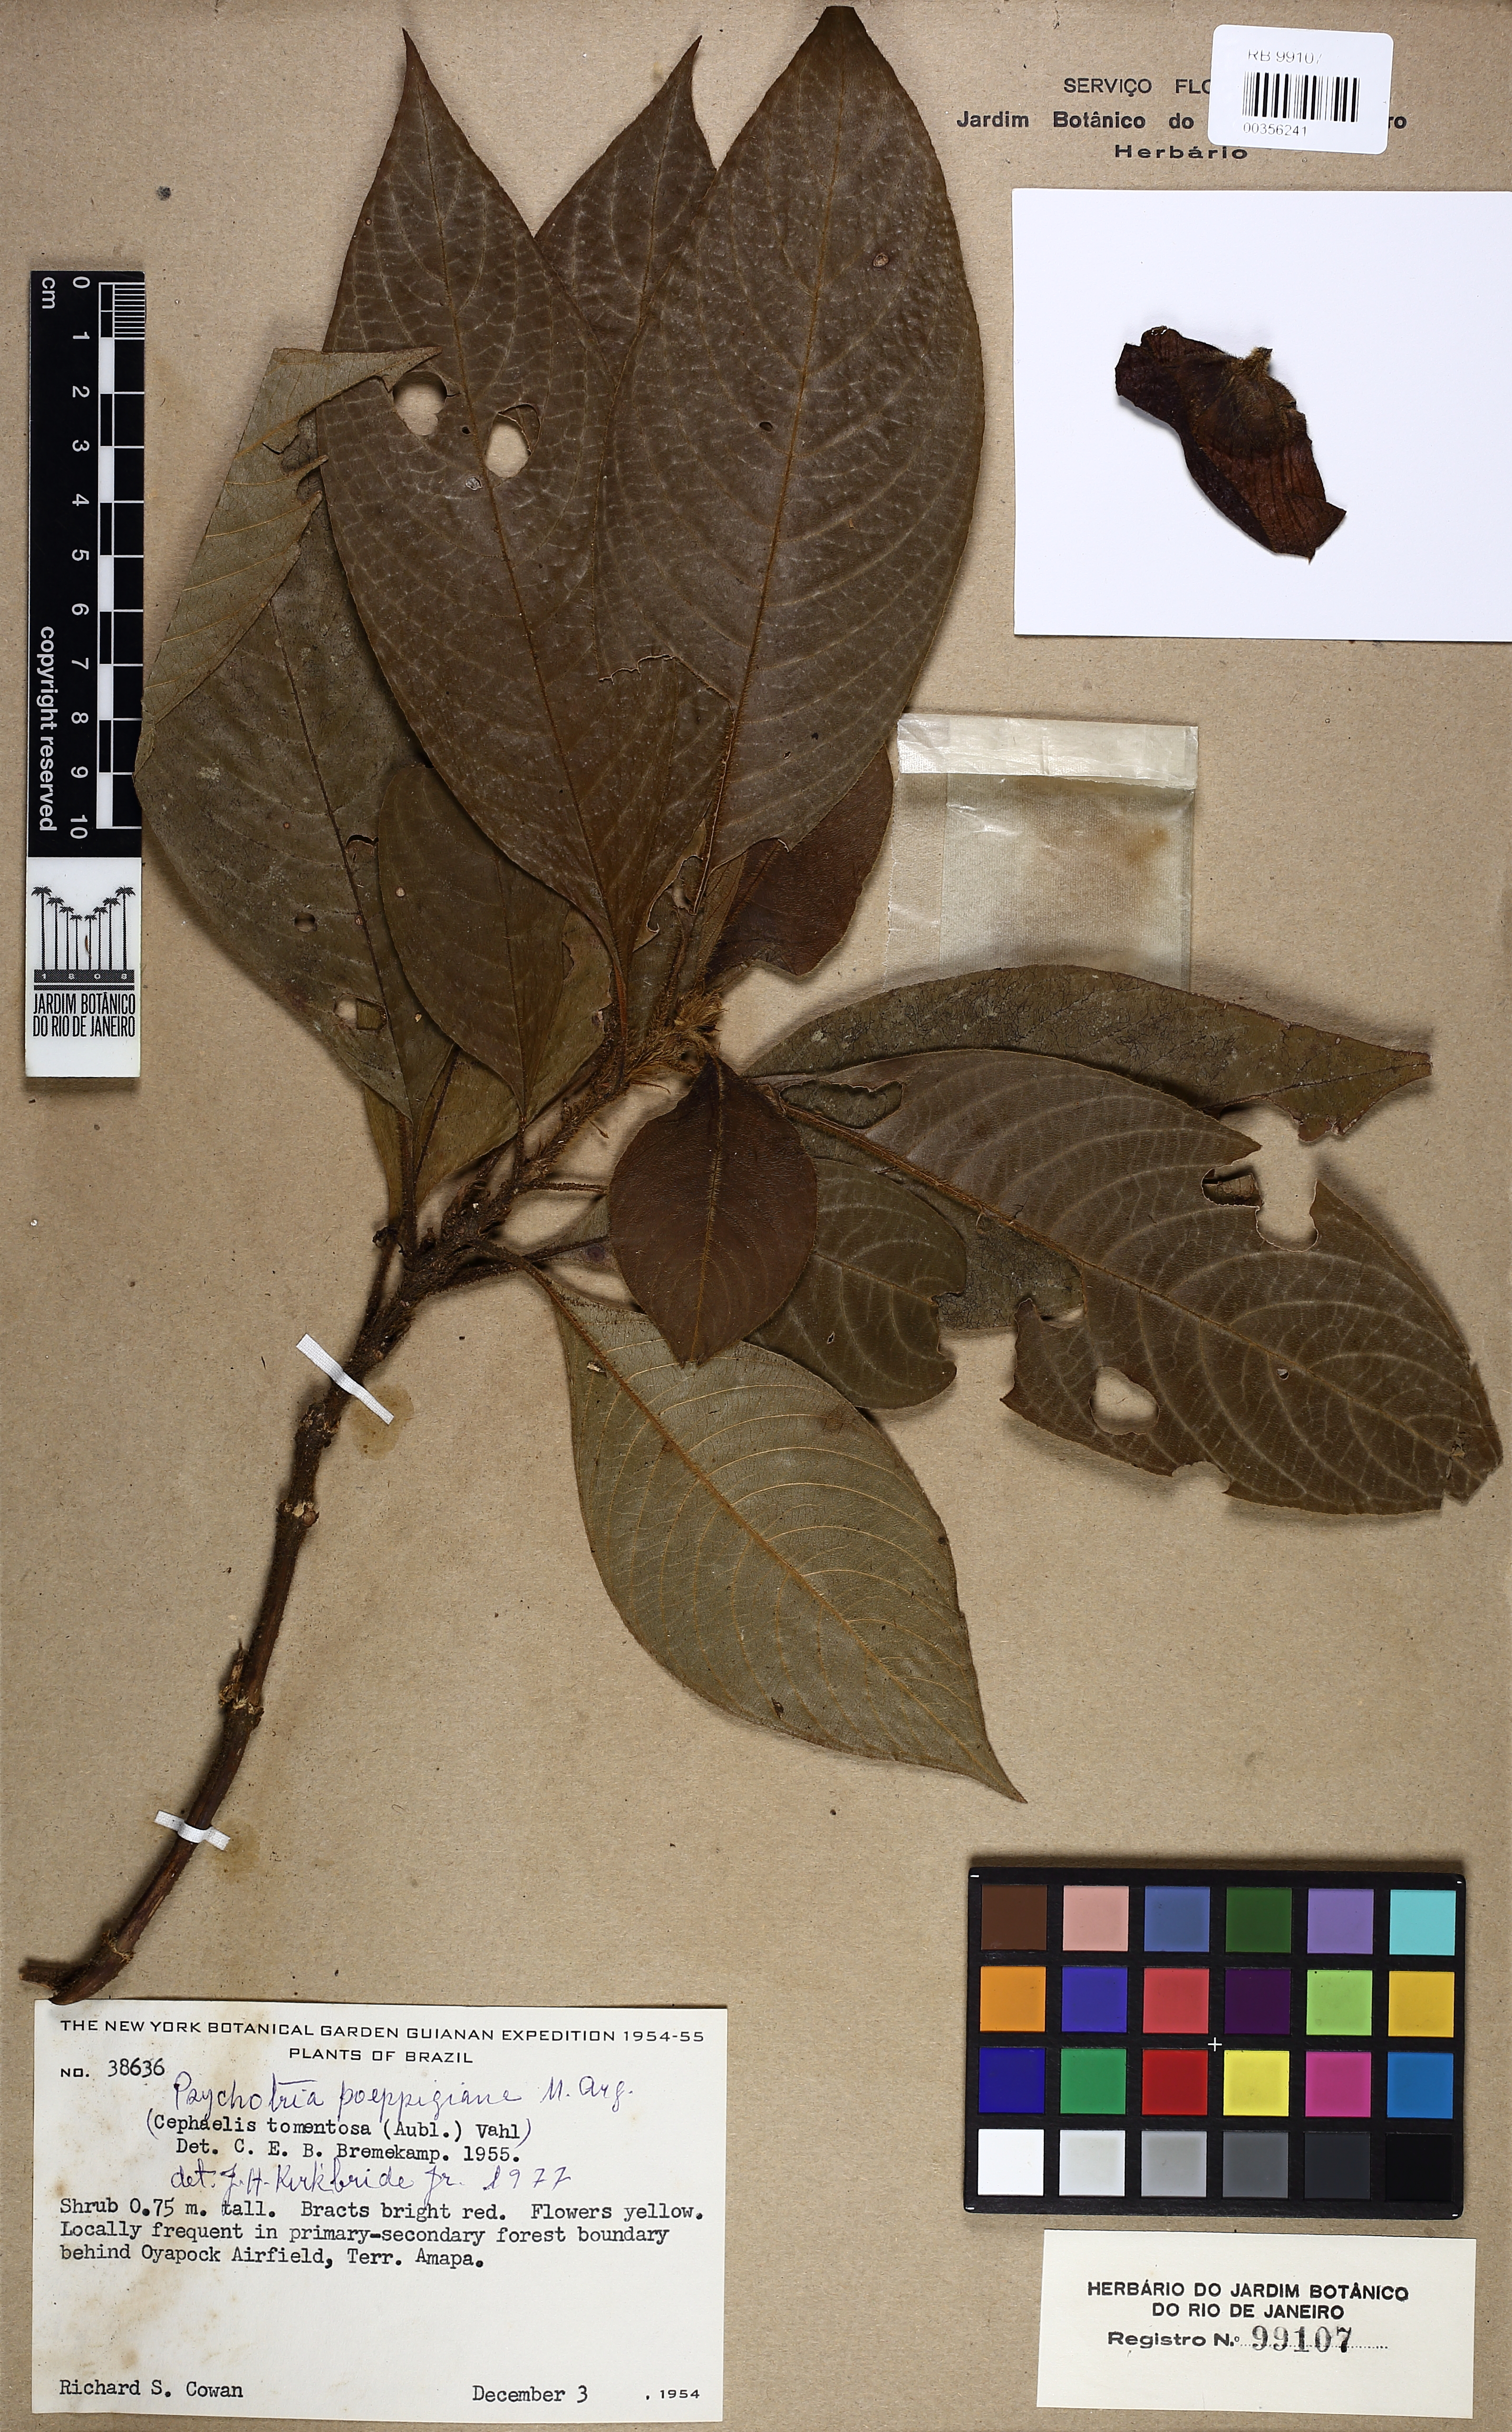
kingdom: Plantae
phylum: Tracheophyta
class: Magnoliopsida
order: Gentianales
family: Rubiaceae
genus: Palicourea
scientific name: Palicourea tomentosa
